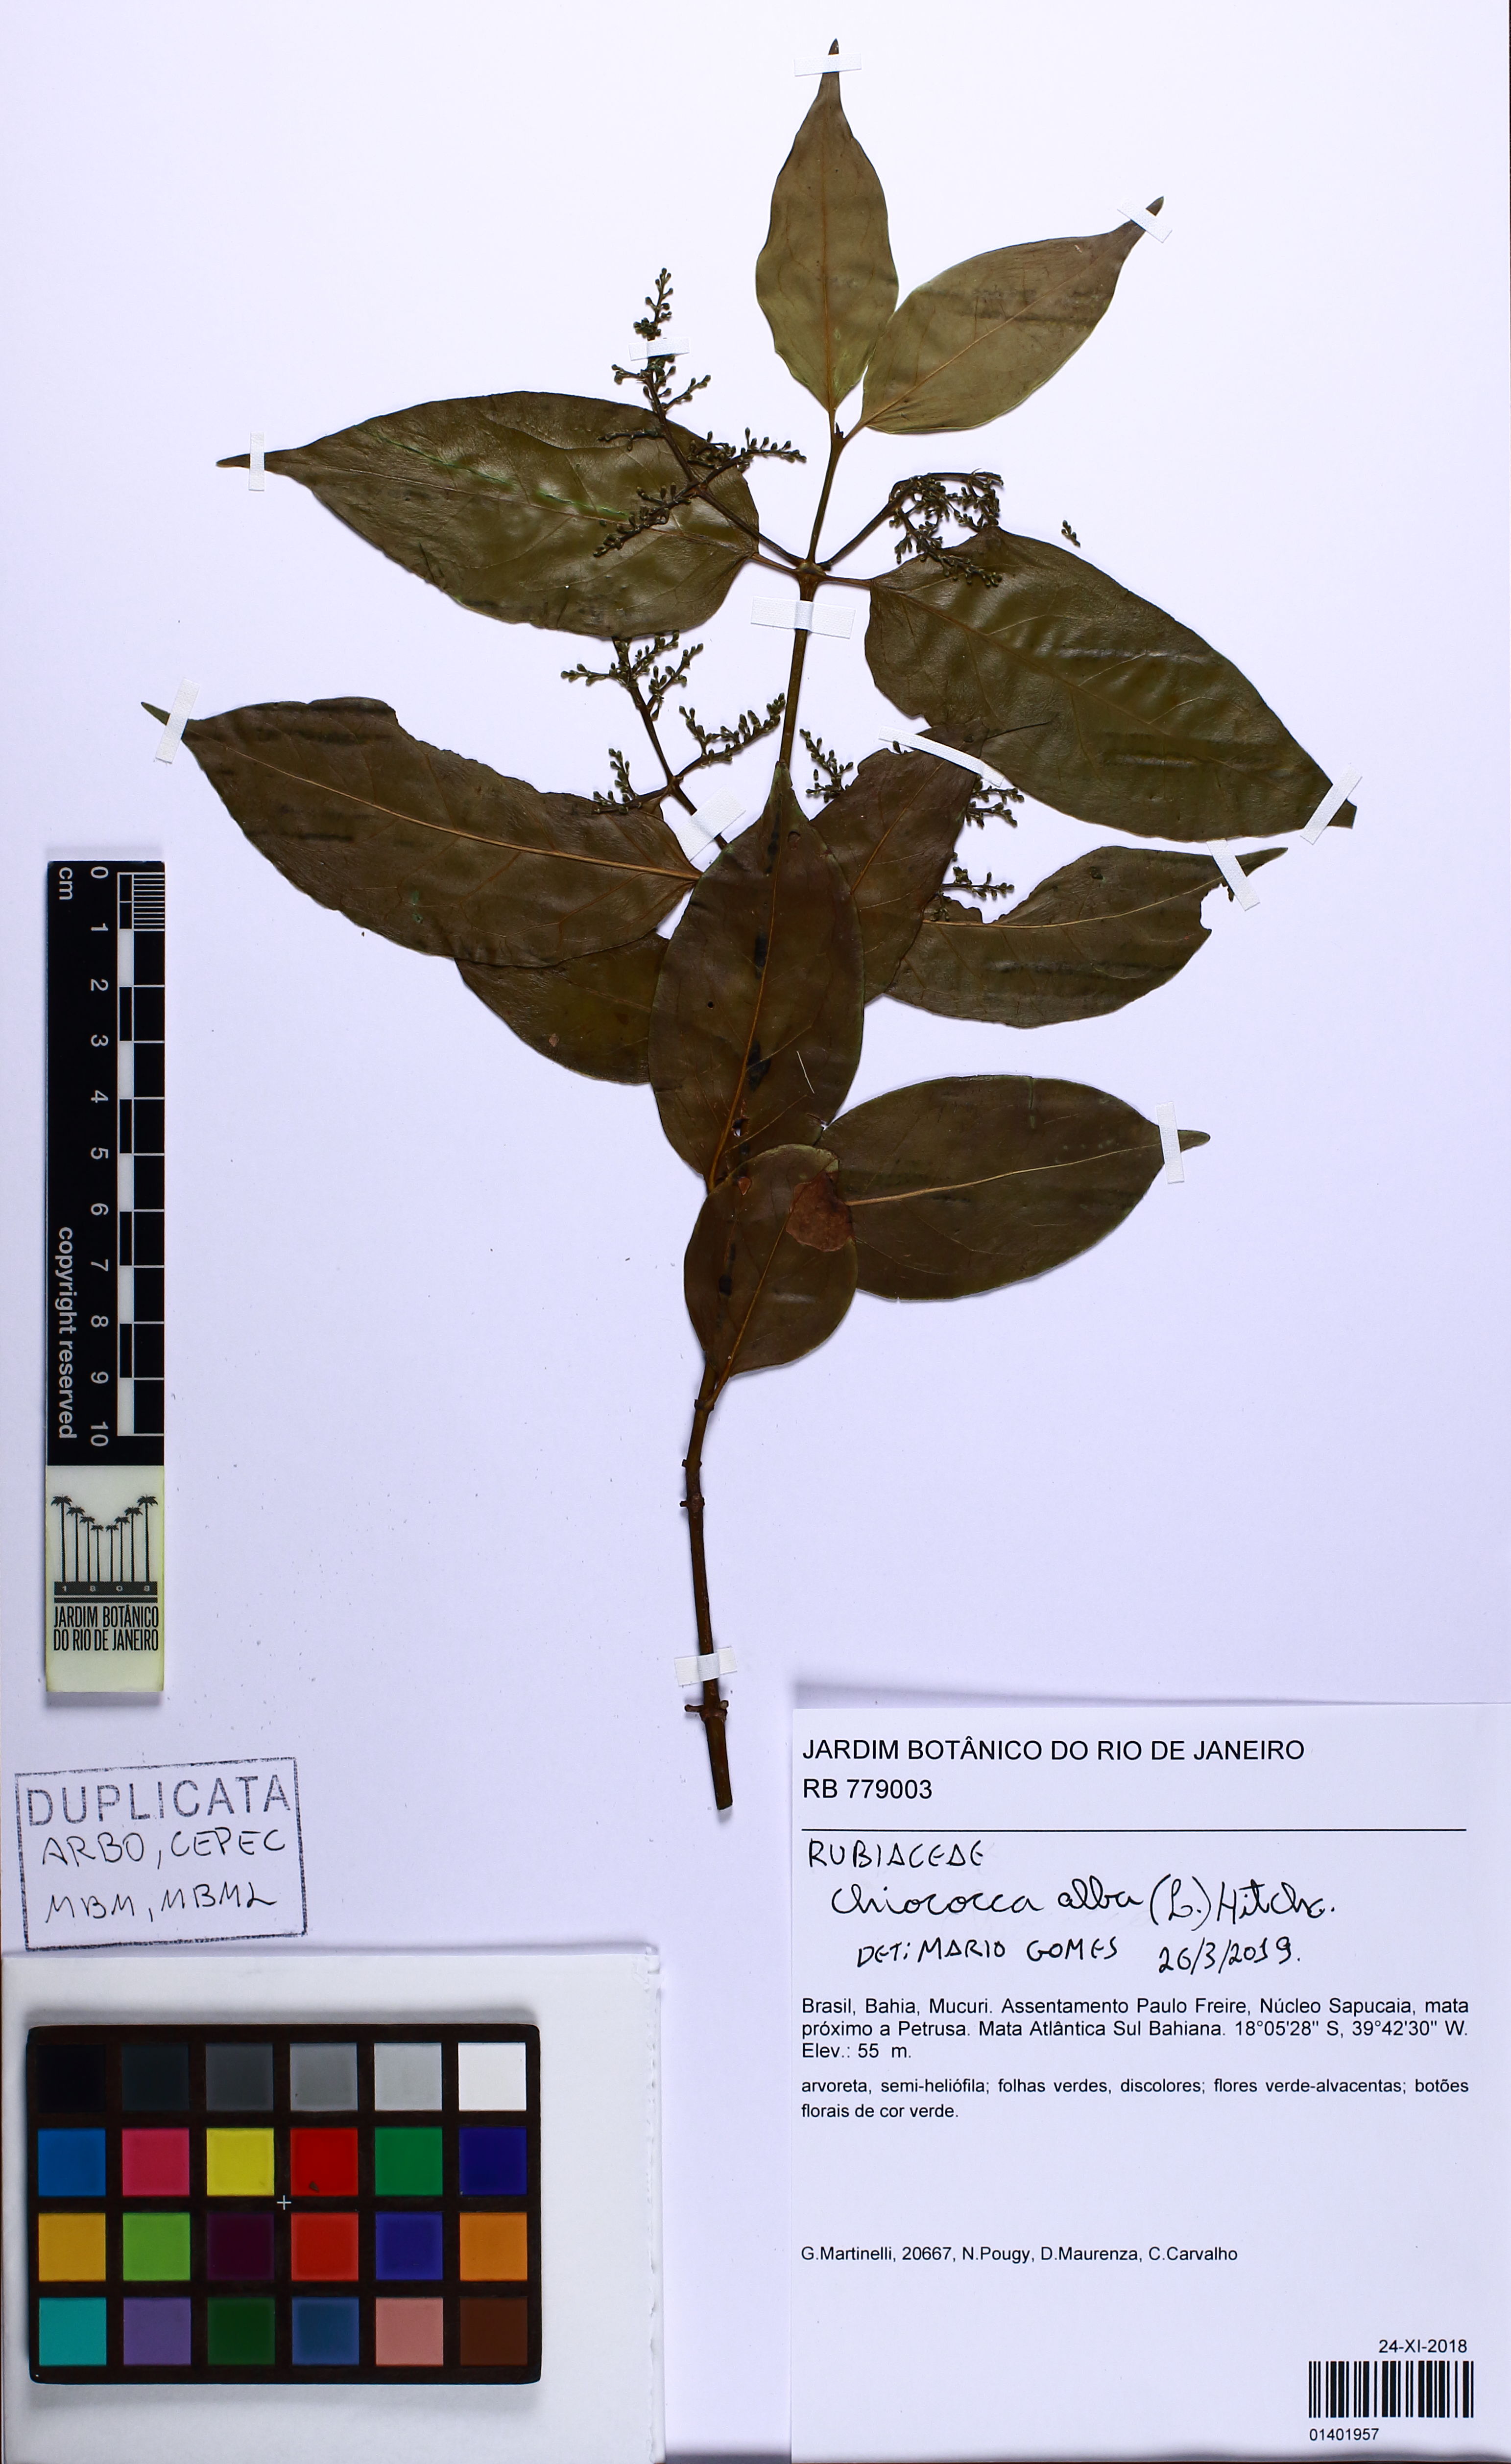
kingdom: Plantae
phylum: Tracheophyta
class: Magnoliopsida
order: Gentianales
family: Rubiaceae
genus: Chiococca
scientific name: Chiococca alba
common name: Snowberry
